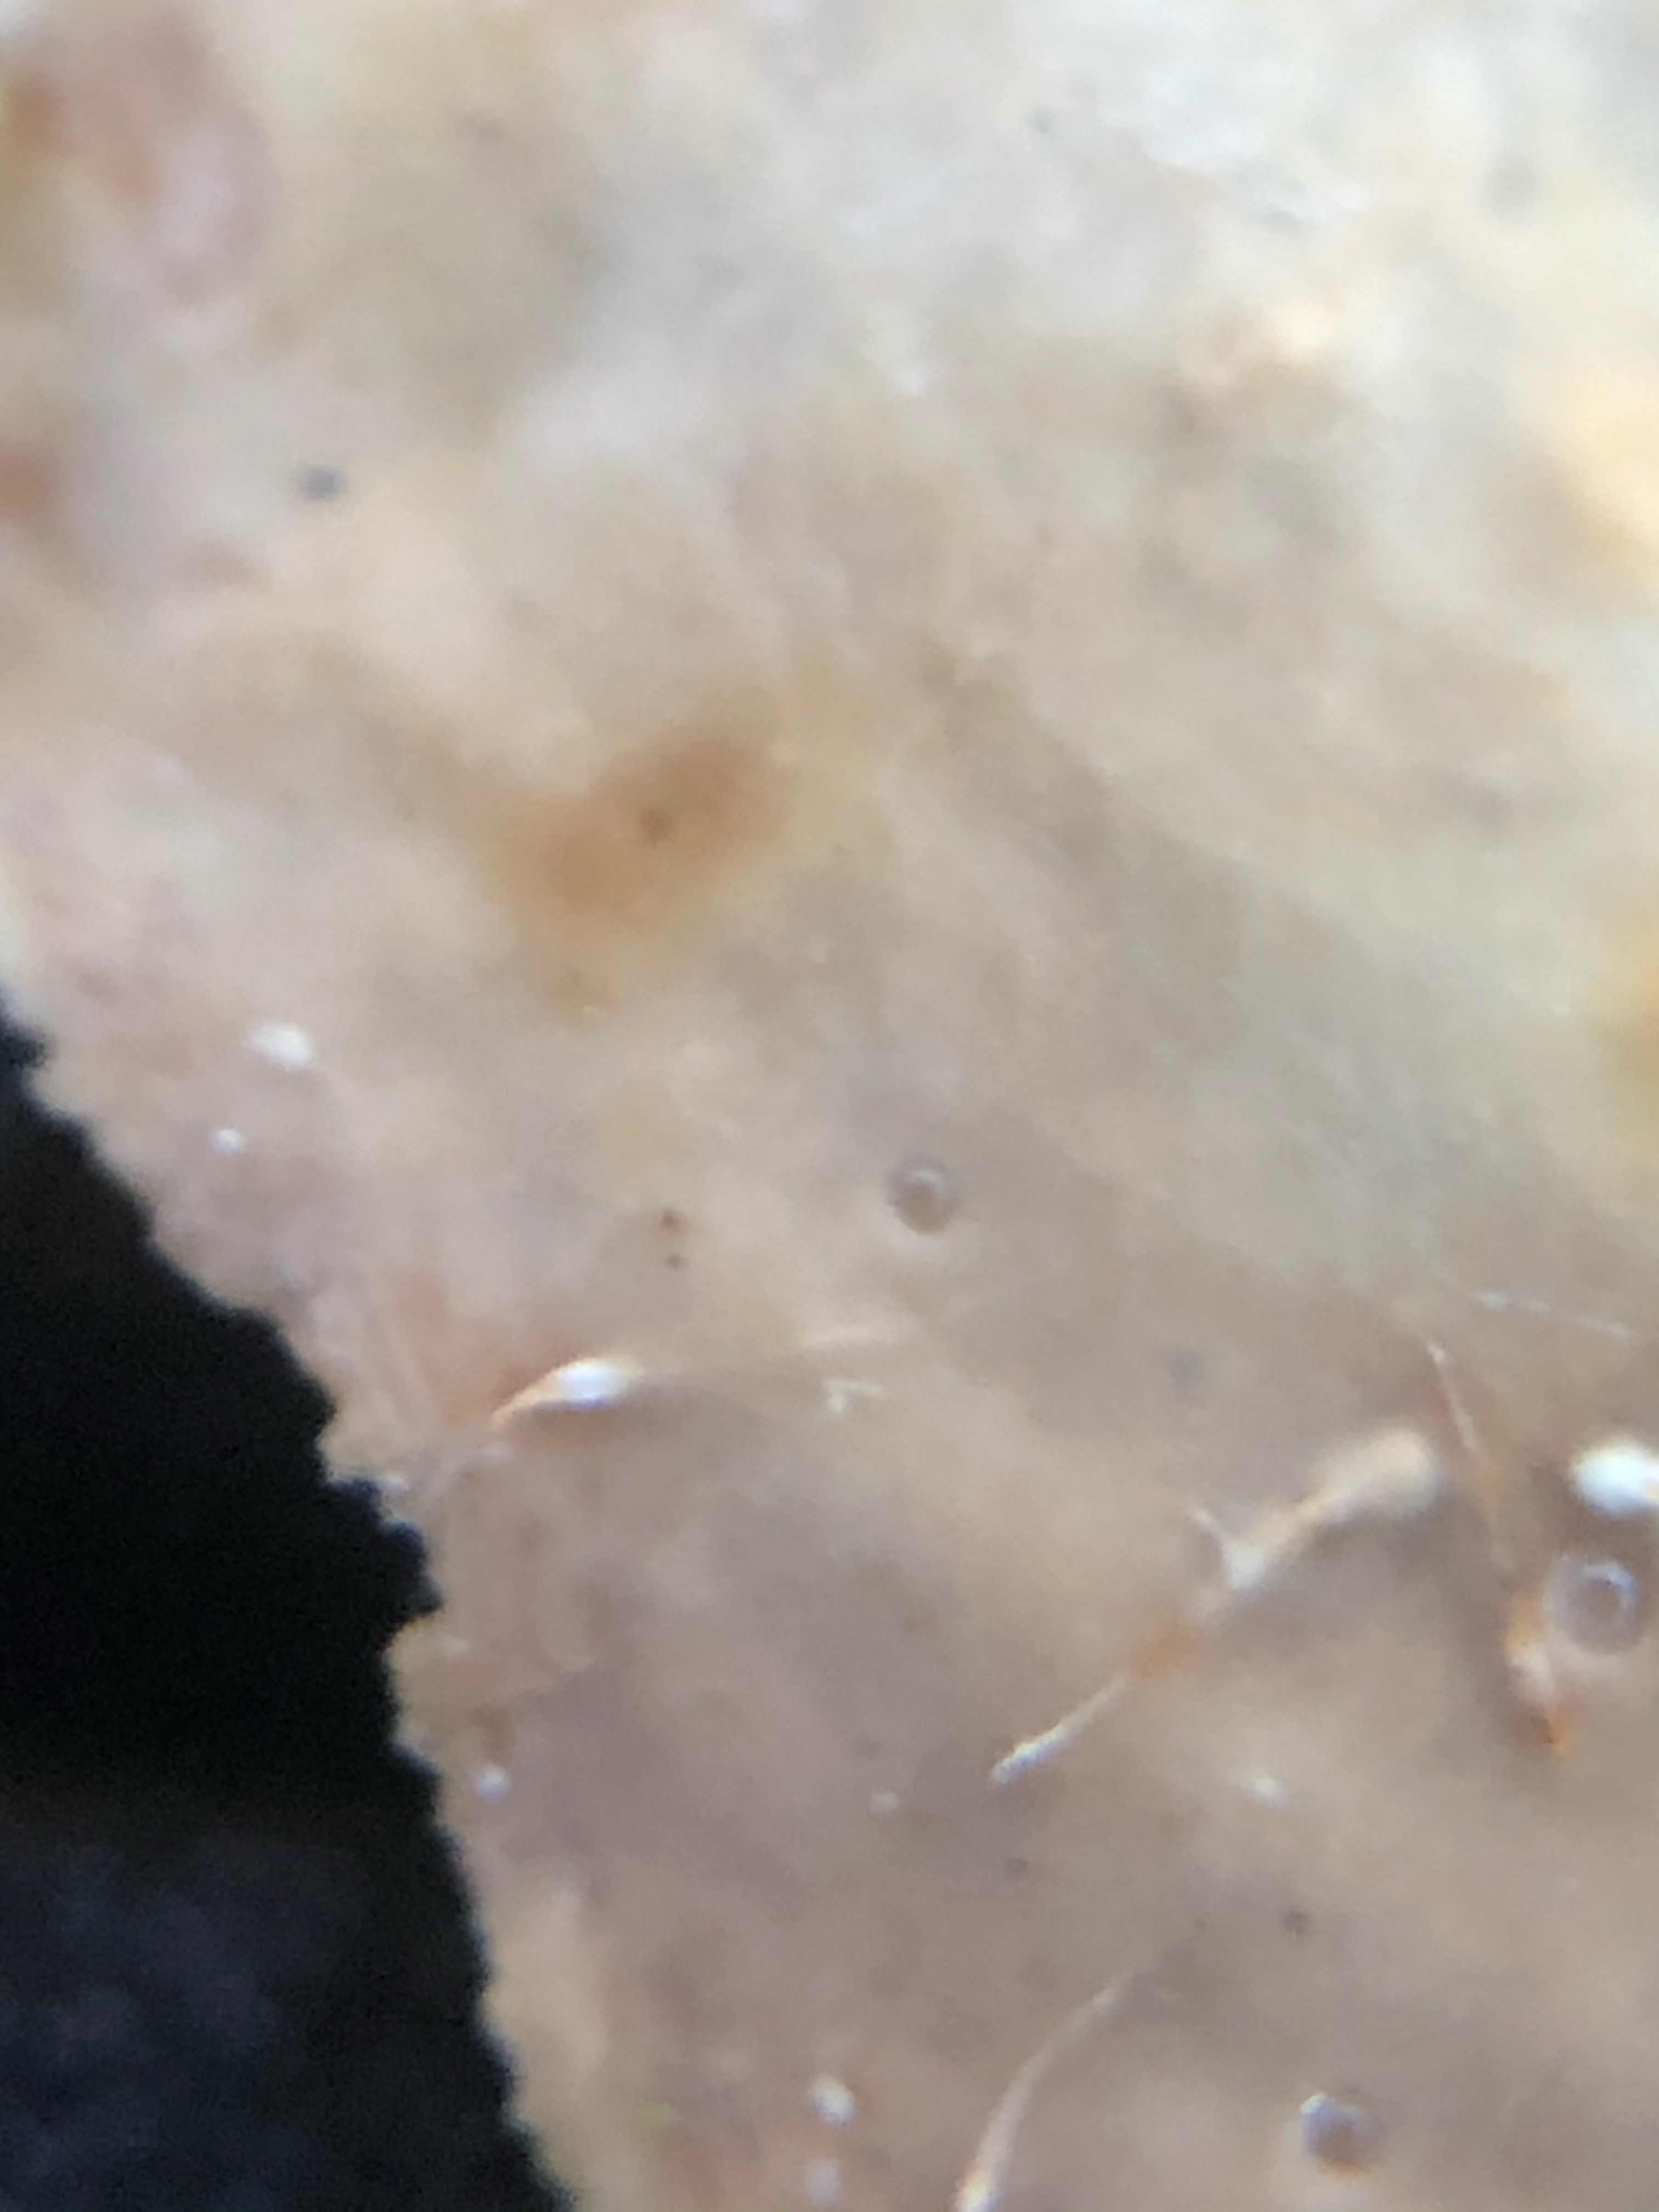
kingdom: Fungi
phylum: Basidiomycota
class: Agaricomycetes
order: Russulales
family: Stereaceae
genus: Stereum
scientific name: Stereum subtomentosum
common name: smuk lædersvamp
